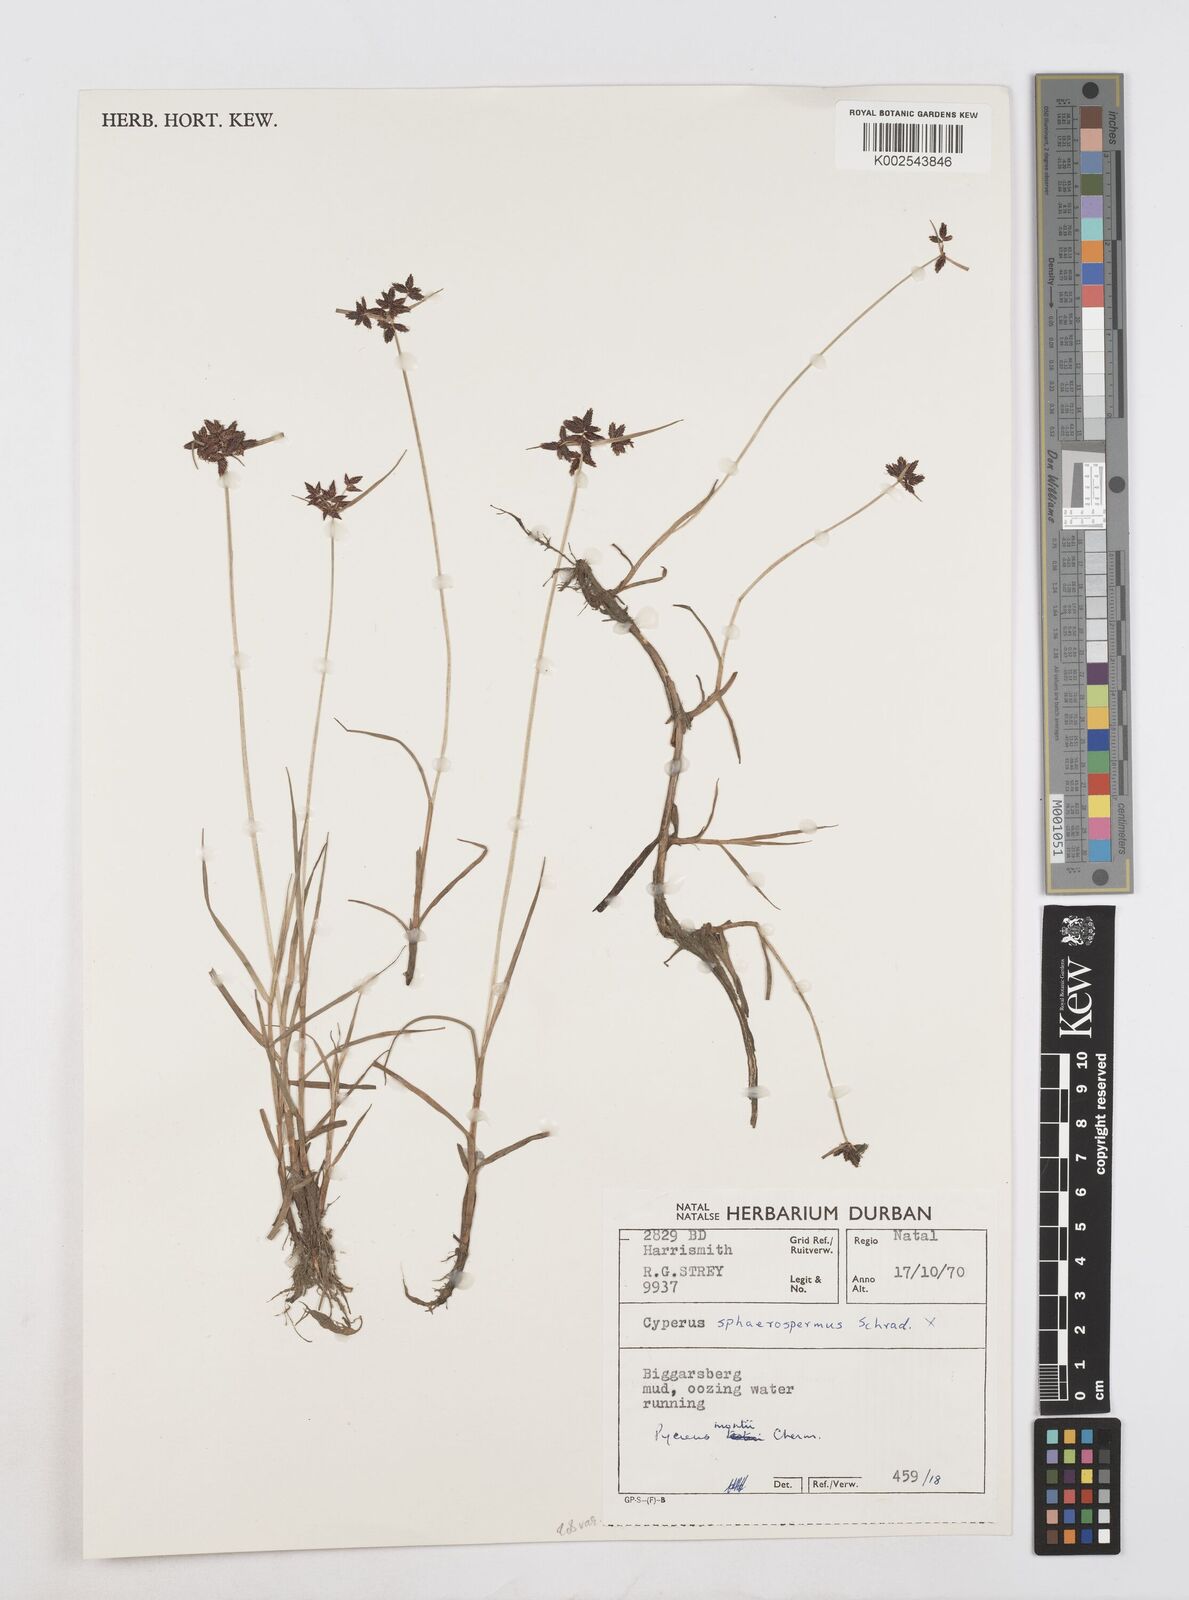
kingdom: Plantae
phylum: Tracheophyta
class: Liliopsida
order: Poales
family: Cyperaceae
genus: Cyperus
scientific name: Cyperus mundii
